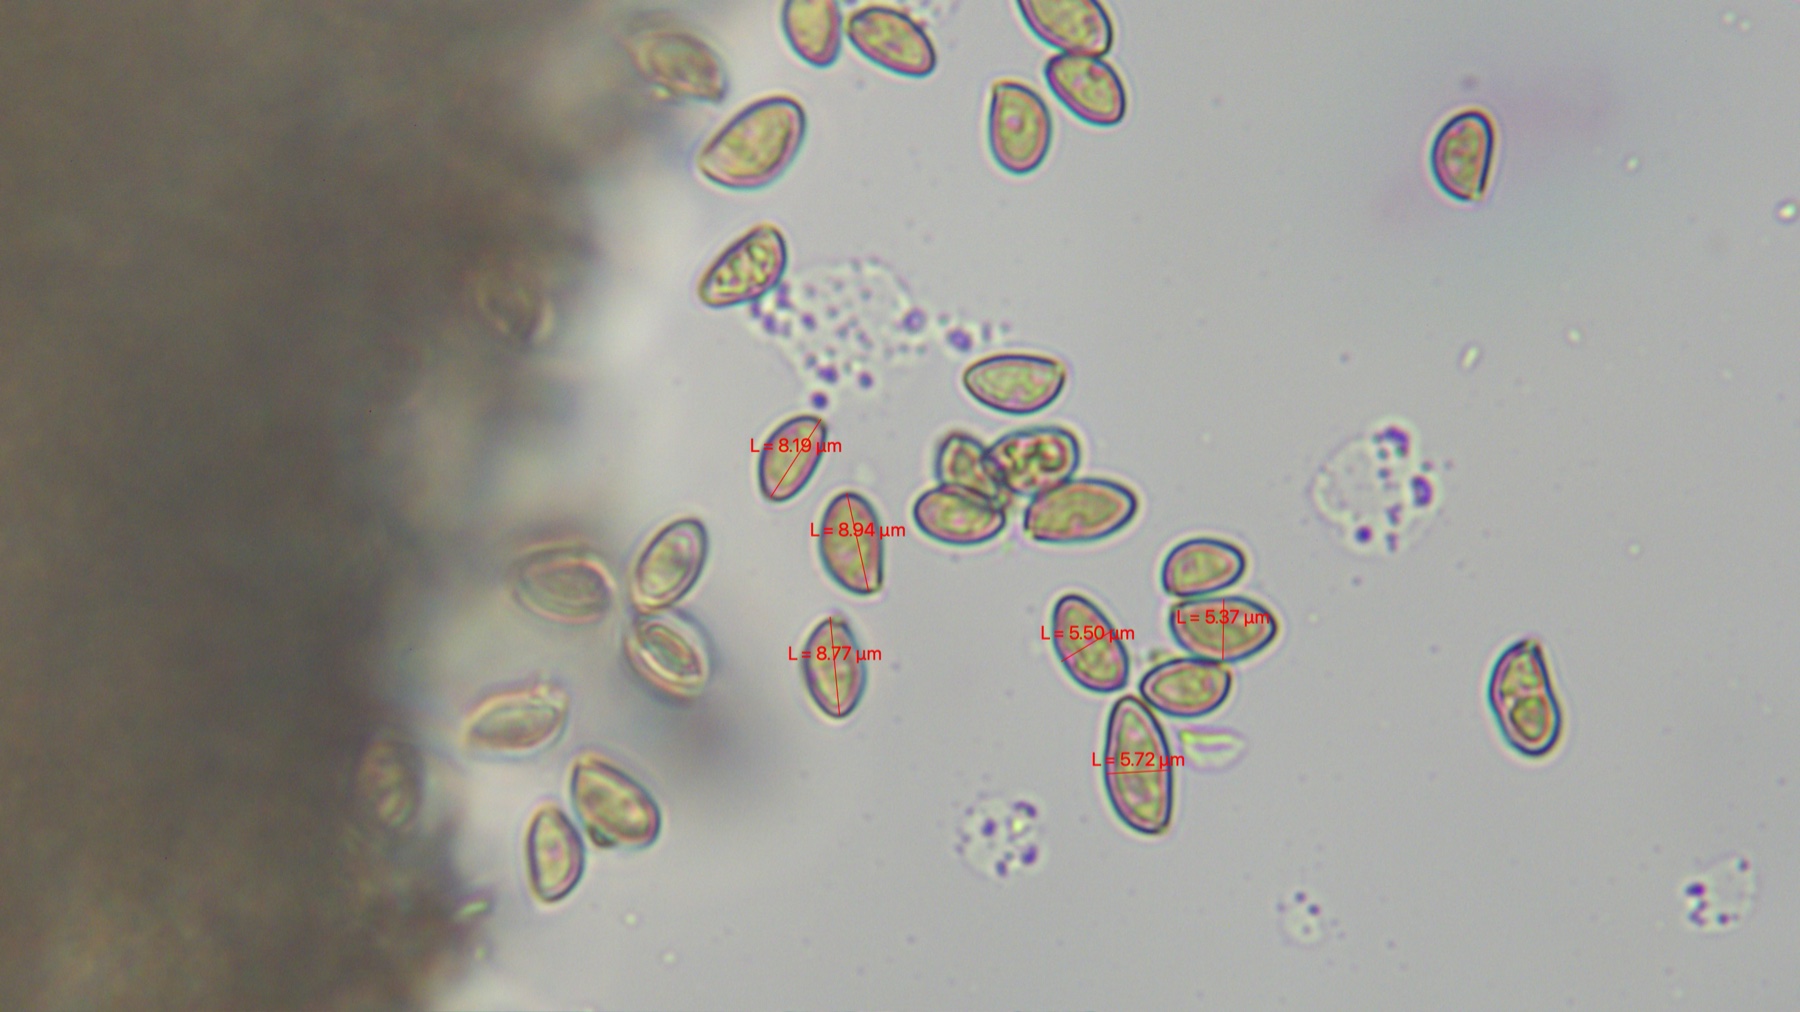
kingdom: Fungi
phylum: Basidiomycota
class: Agaricomycetes
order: Agaricales
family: Inocybaceae
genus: Inocybe
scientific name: Inocybe geophylla
